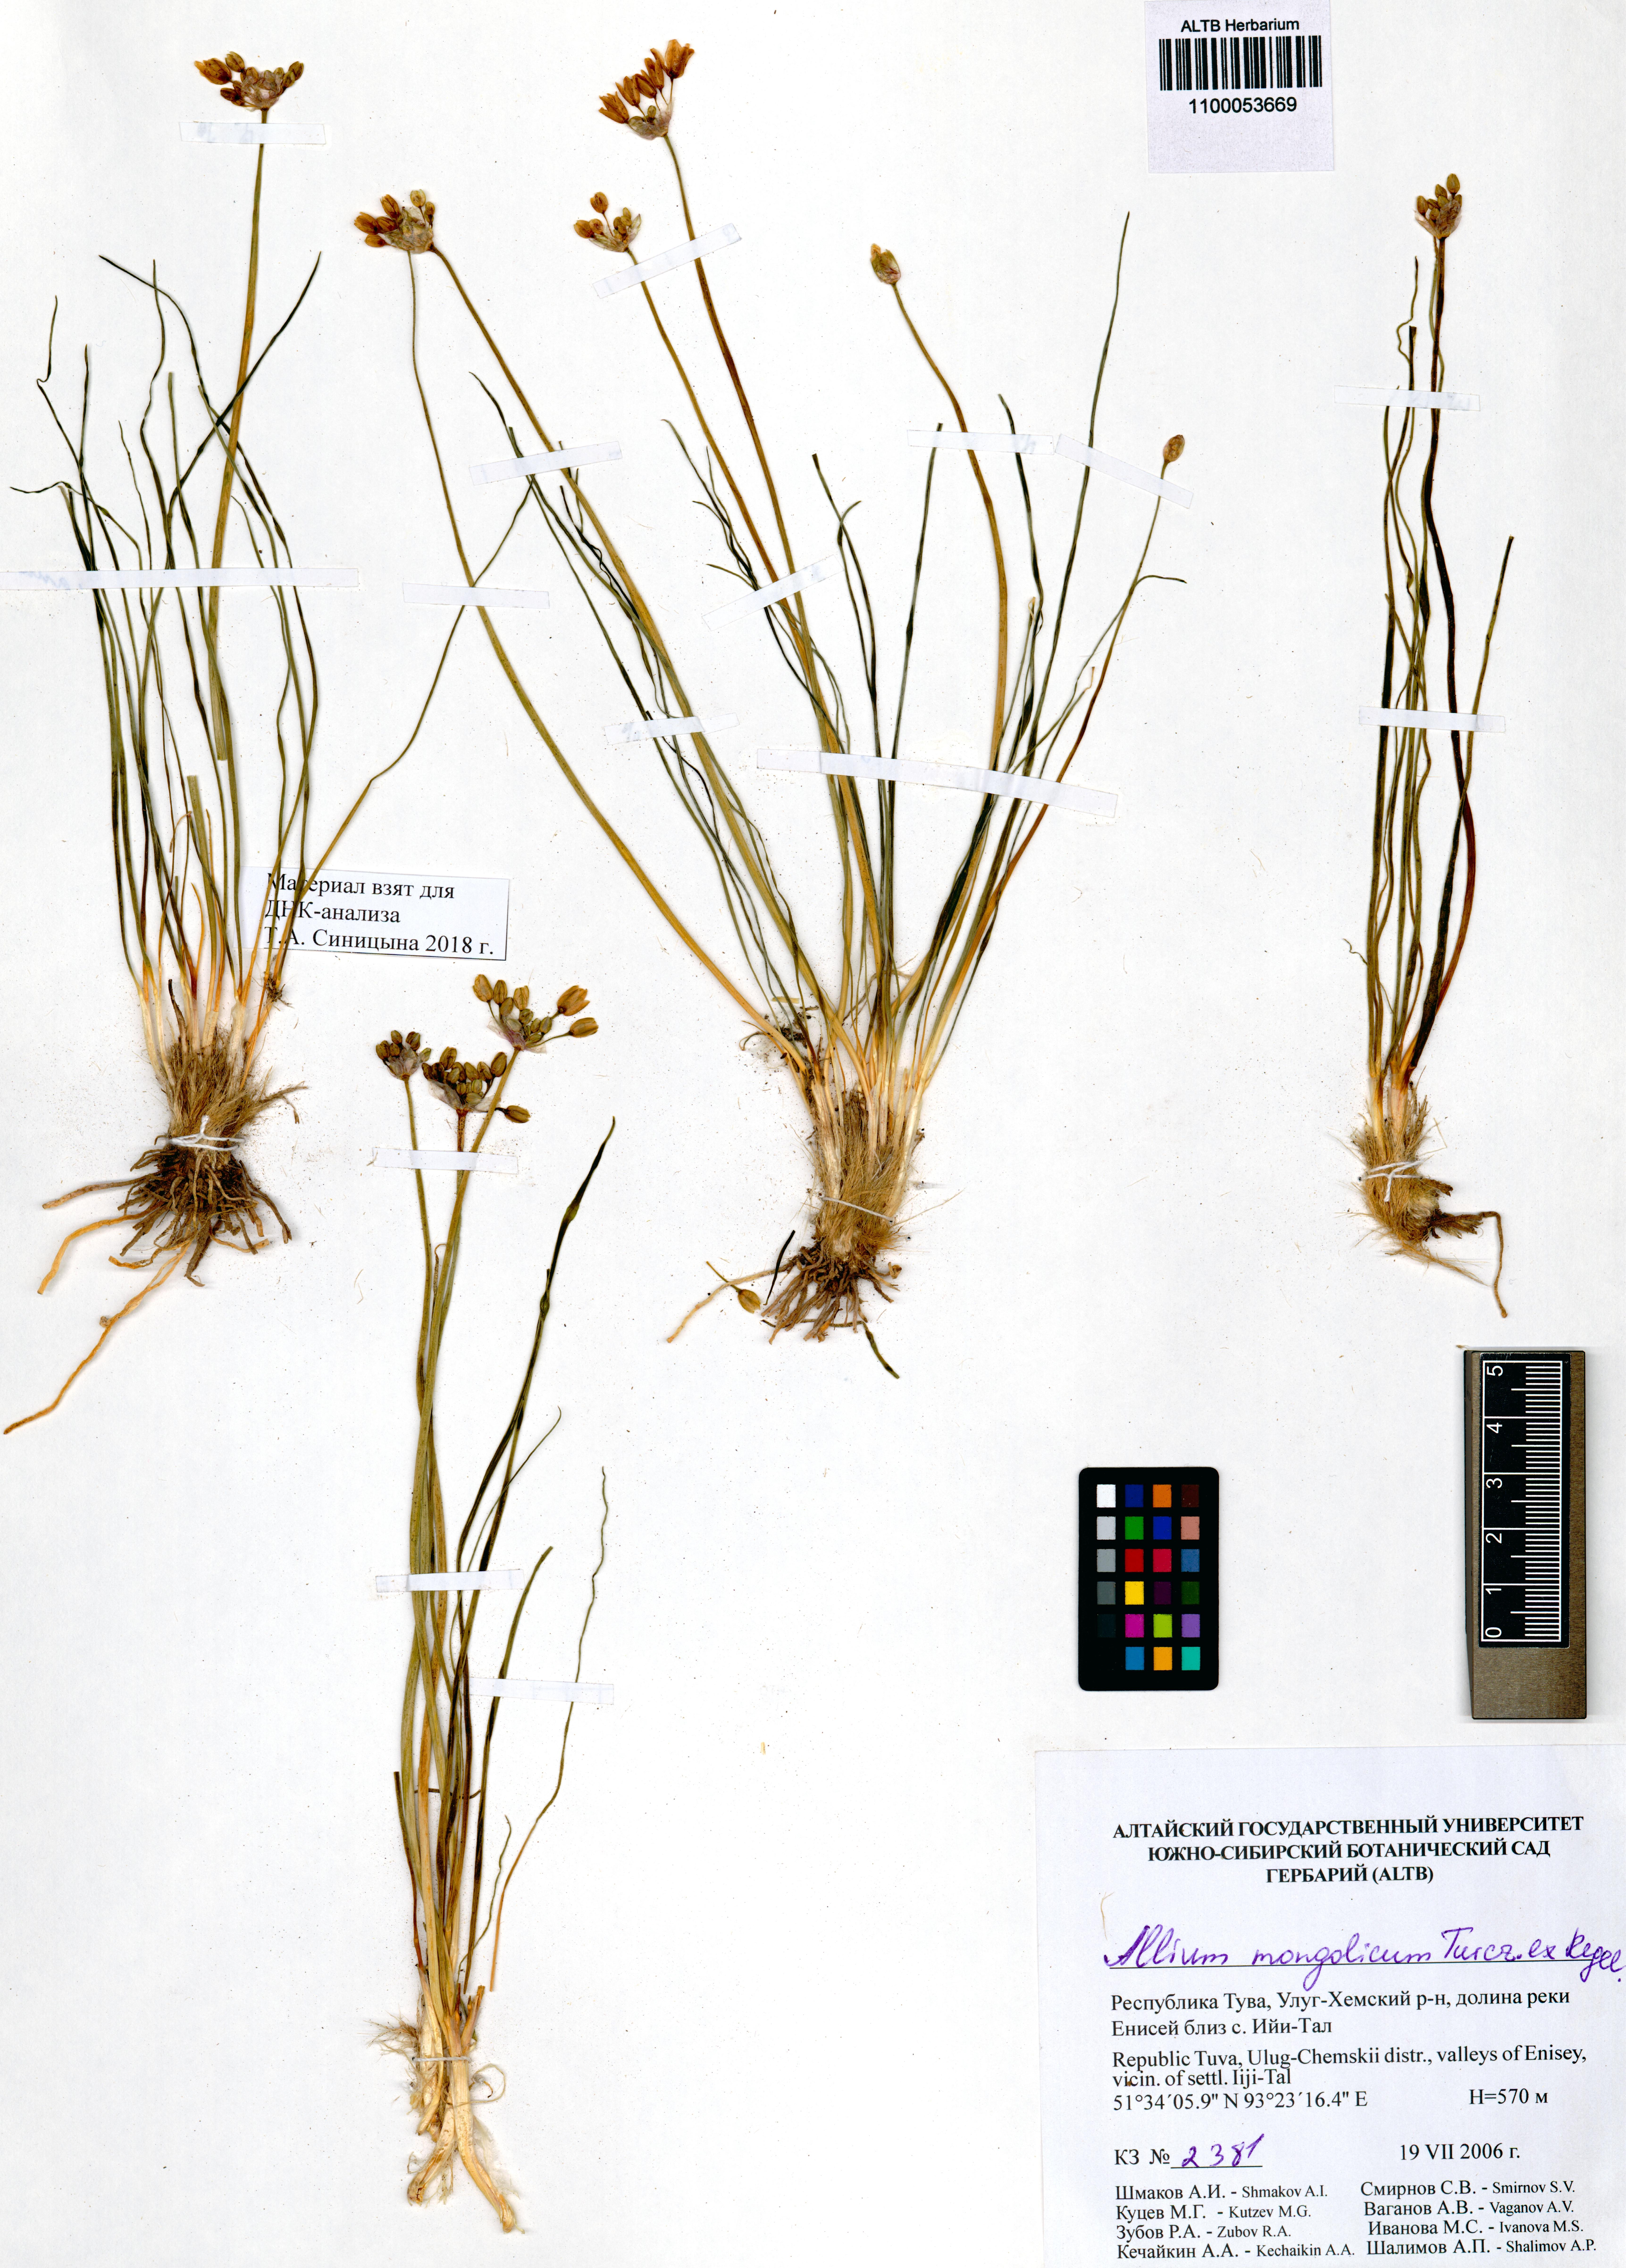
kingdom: Plantae
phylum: Tracheophyta
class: Liliopsida
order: Asparagales
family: Amaryllidaceae
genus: Allium
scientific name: Allium mongolicum
